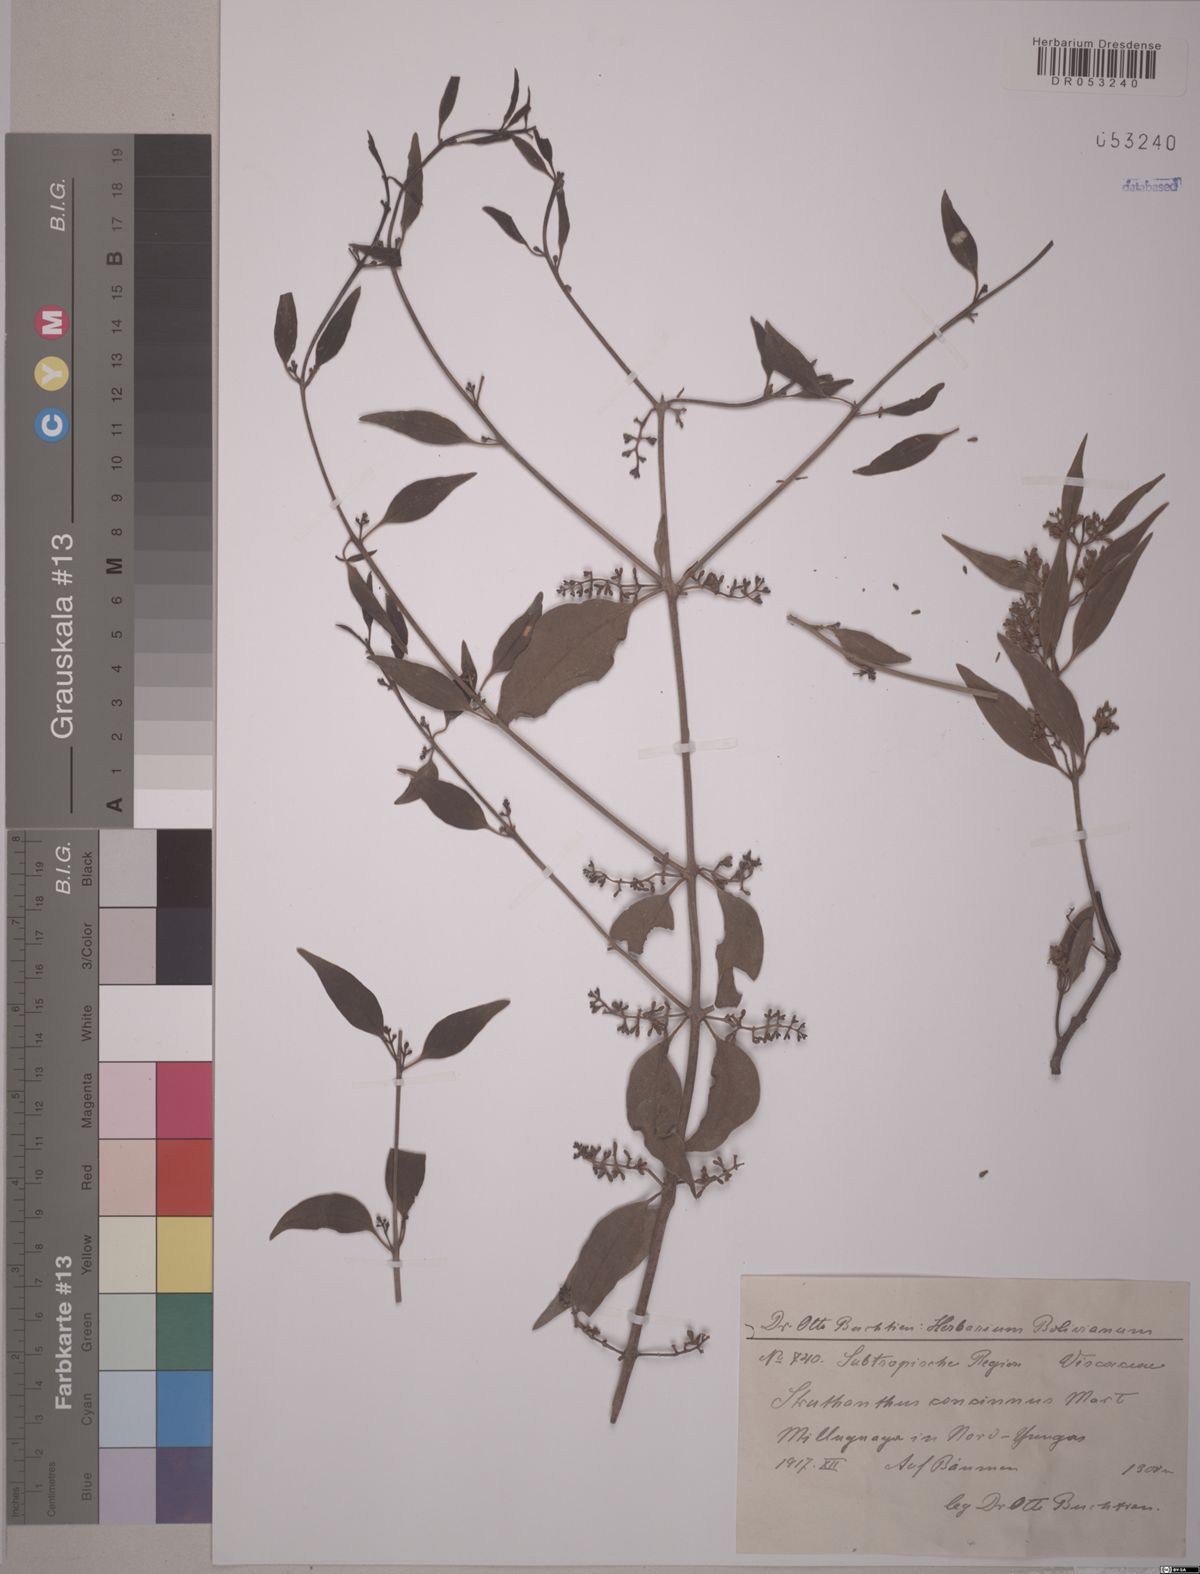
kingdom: Plantae
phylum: Tracheophyta
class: Magnoliopsida
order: Santalales
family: Loranthaceae
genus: Struthanthus
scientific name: Struthanthus concinnus
